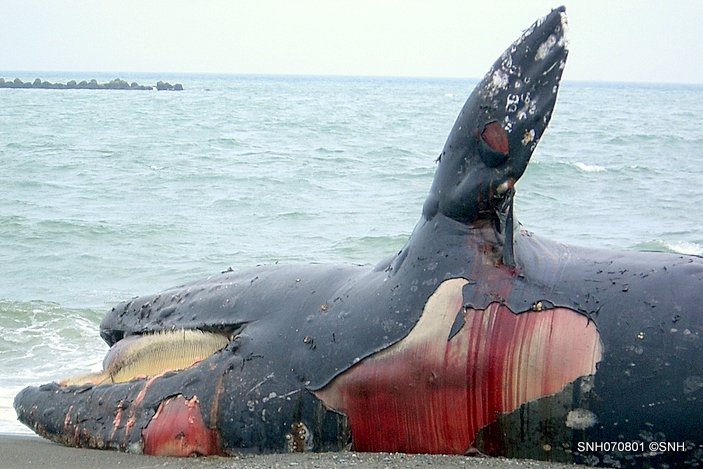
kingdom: Animalia
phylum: Chordata
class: Mammalia
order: Cetacea
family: Eschrichtiidae
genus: Eschrichtius
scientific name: Eschrichtius robustus
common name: Gray whale
